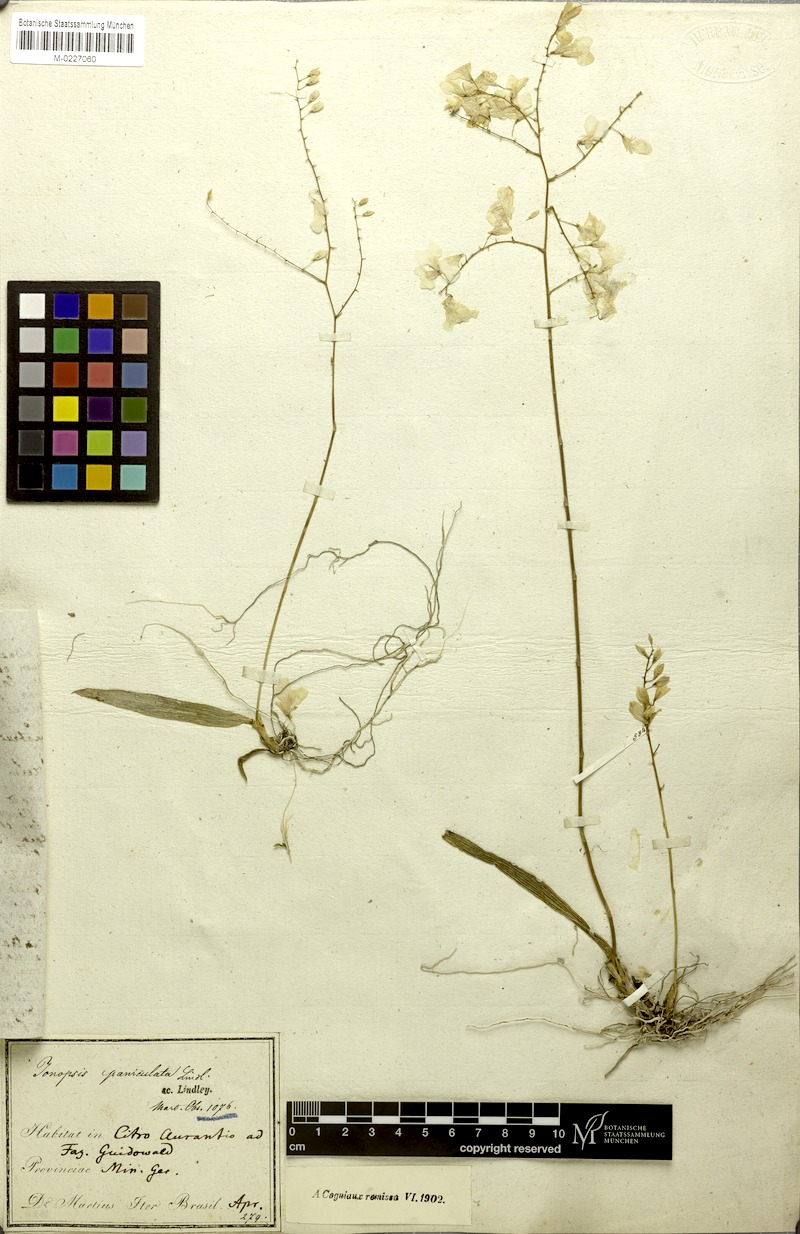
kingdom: Plantae
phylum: Tracheophyta
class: Liliopsida
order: Asparagales
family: Orchidaceae
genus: Ionopsis
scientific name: Ionopsis utricularioides
